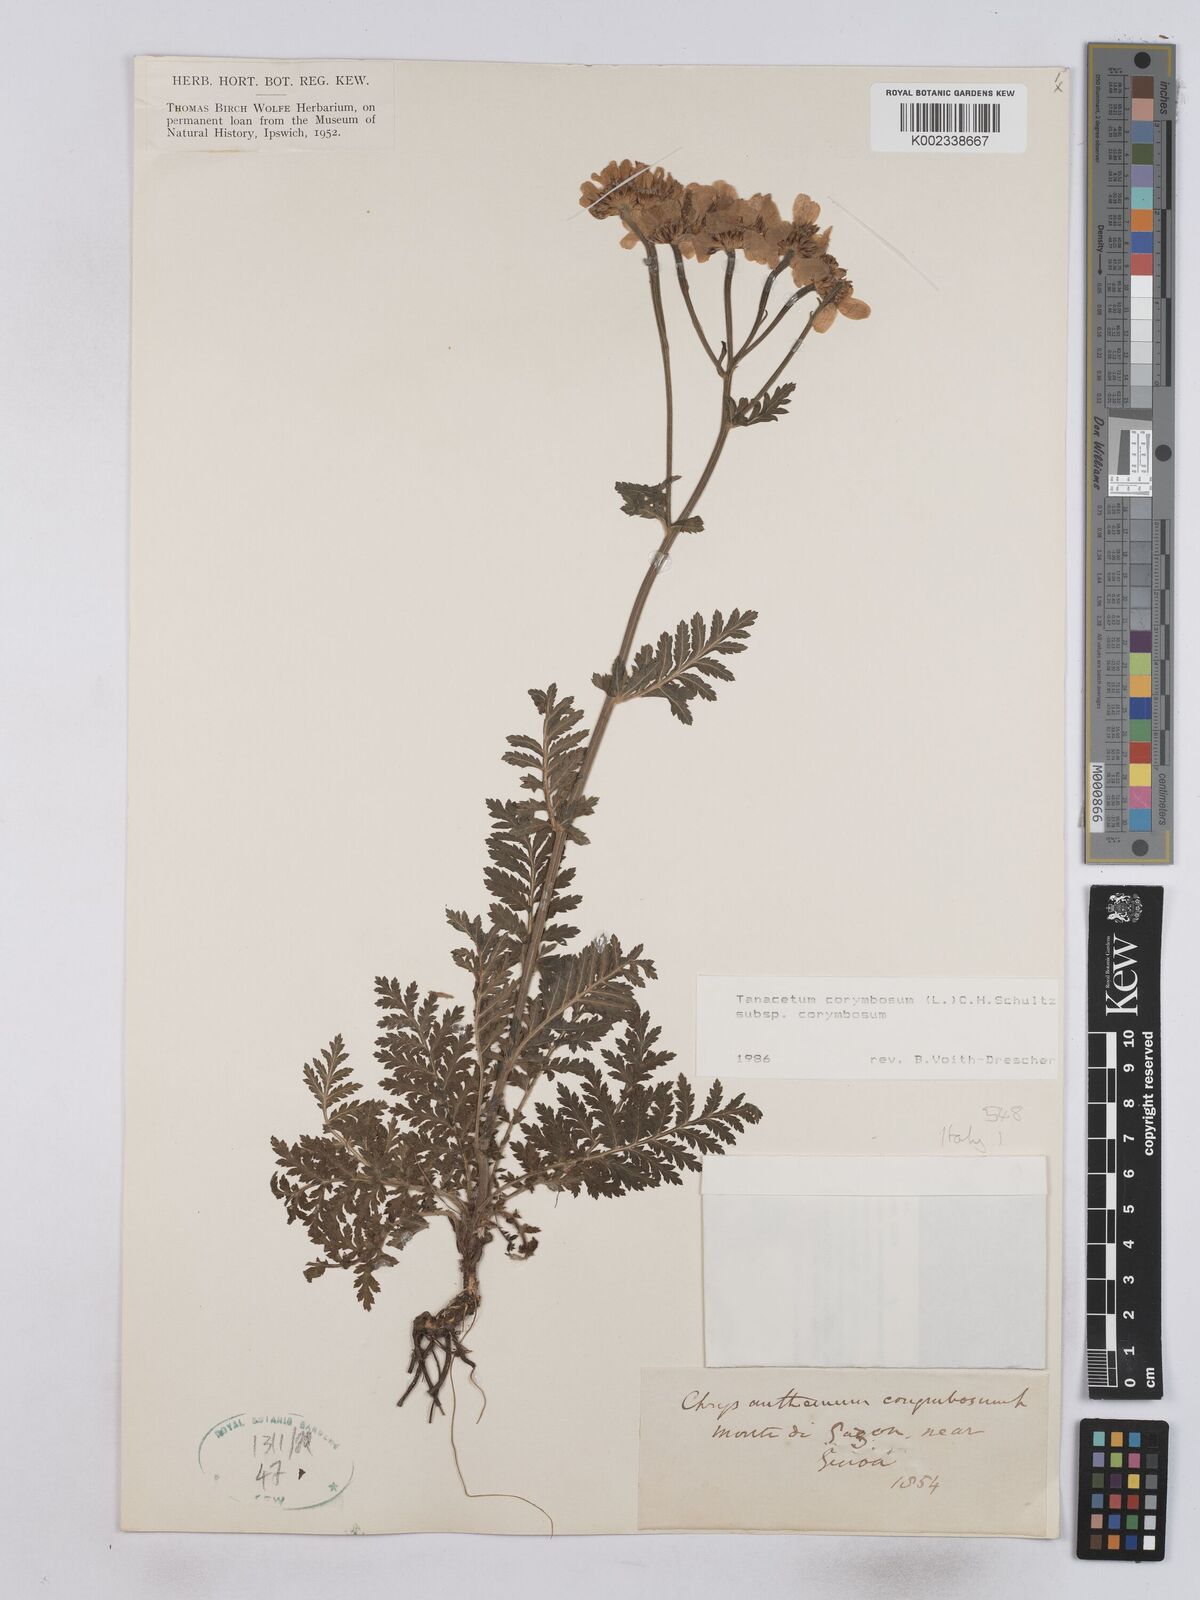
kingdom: Plantae
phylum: Tracheophyta
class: Magnoliopsida
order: Asterales
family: Asteraceae
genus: Tanacetum
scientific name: Tanacetum corymbosum
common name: Scentless feverfew
